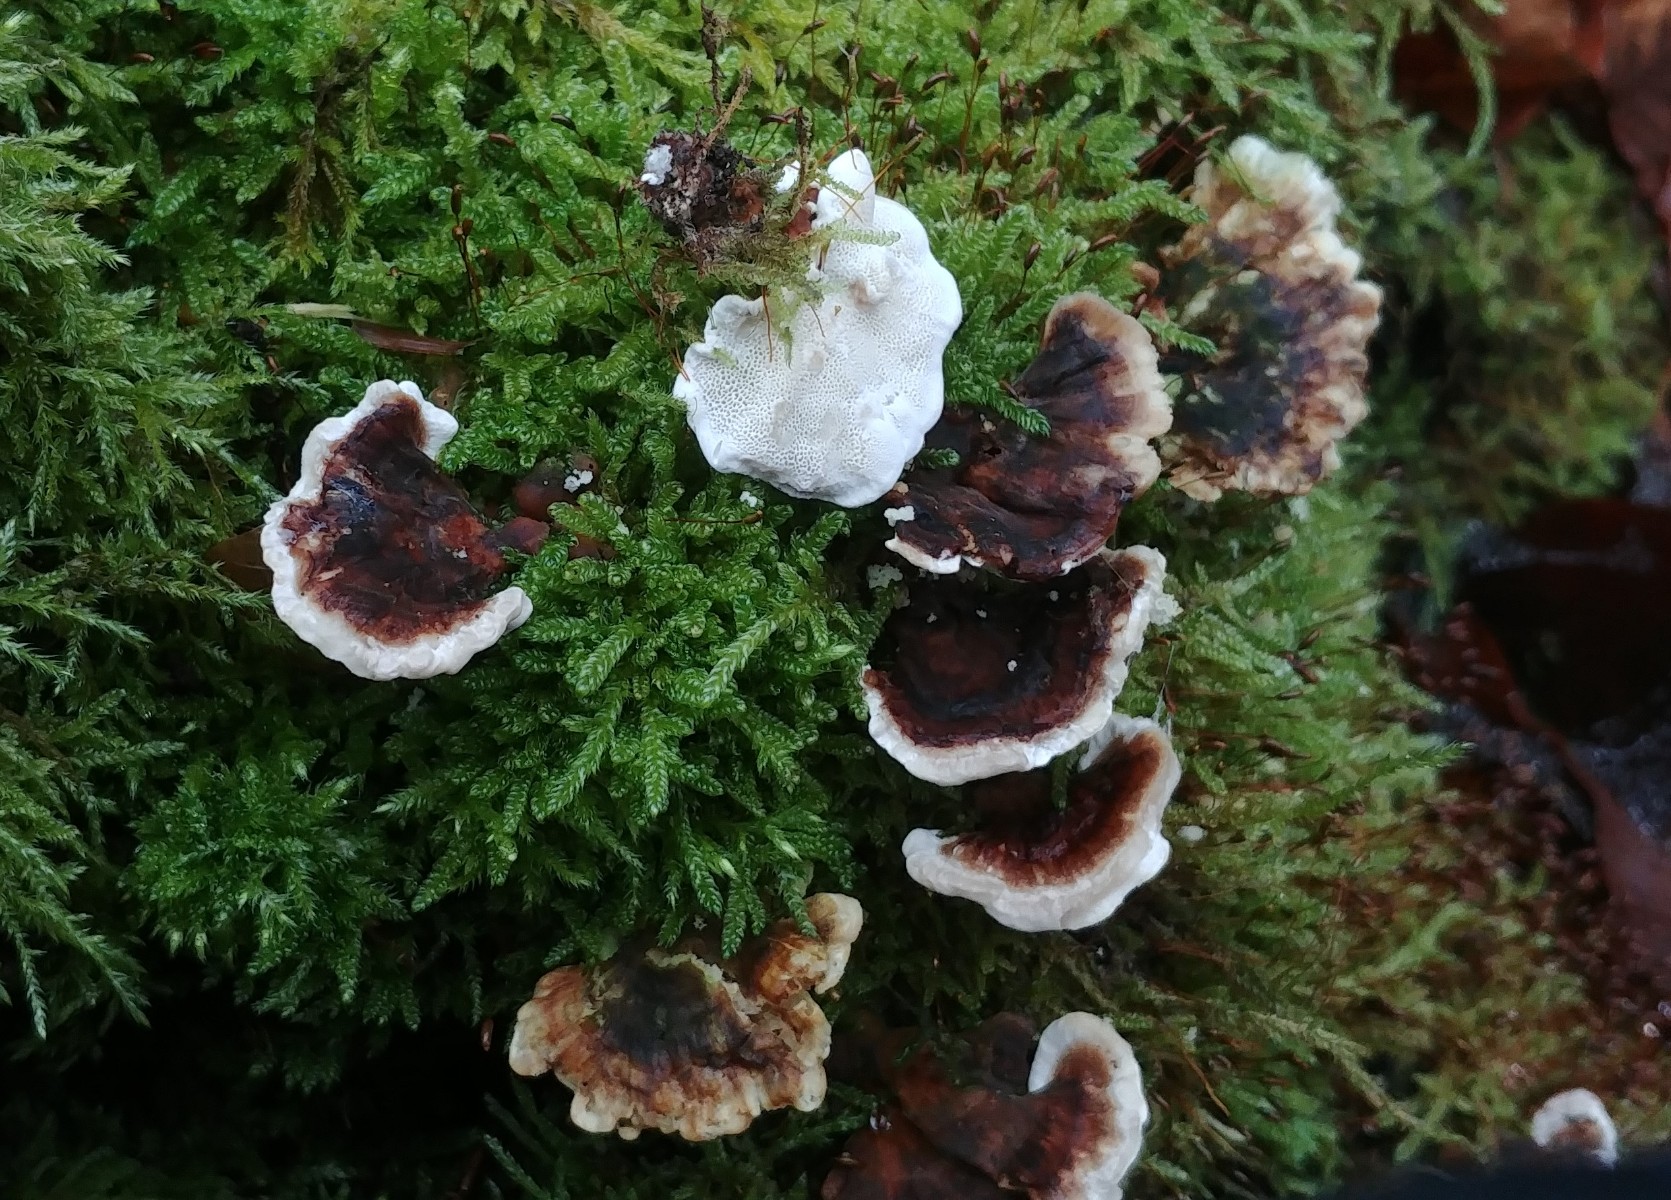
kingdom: Fungi
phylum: Basidiomycota
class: Agaricomycetes
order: Polyporales
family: Polyporaceae
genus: Trametes
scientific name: Trametes versicolor
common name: broget læderporesvamp
